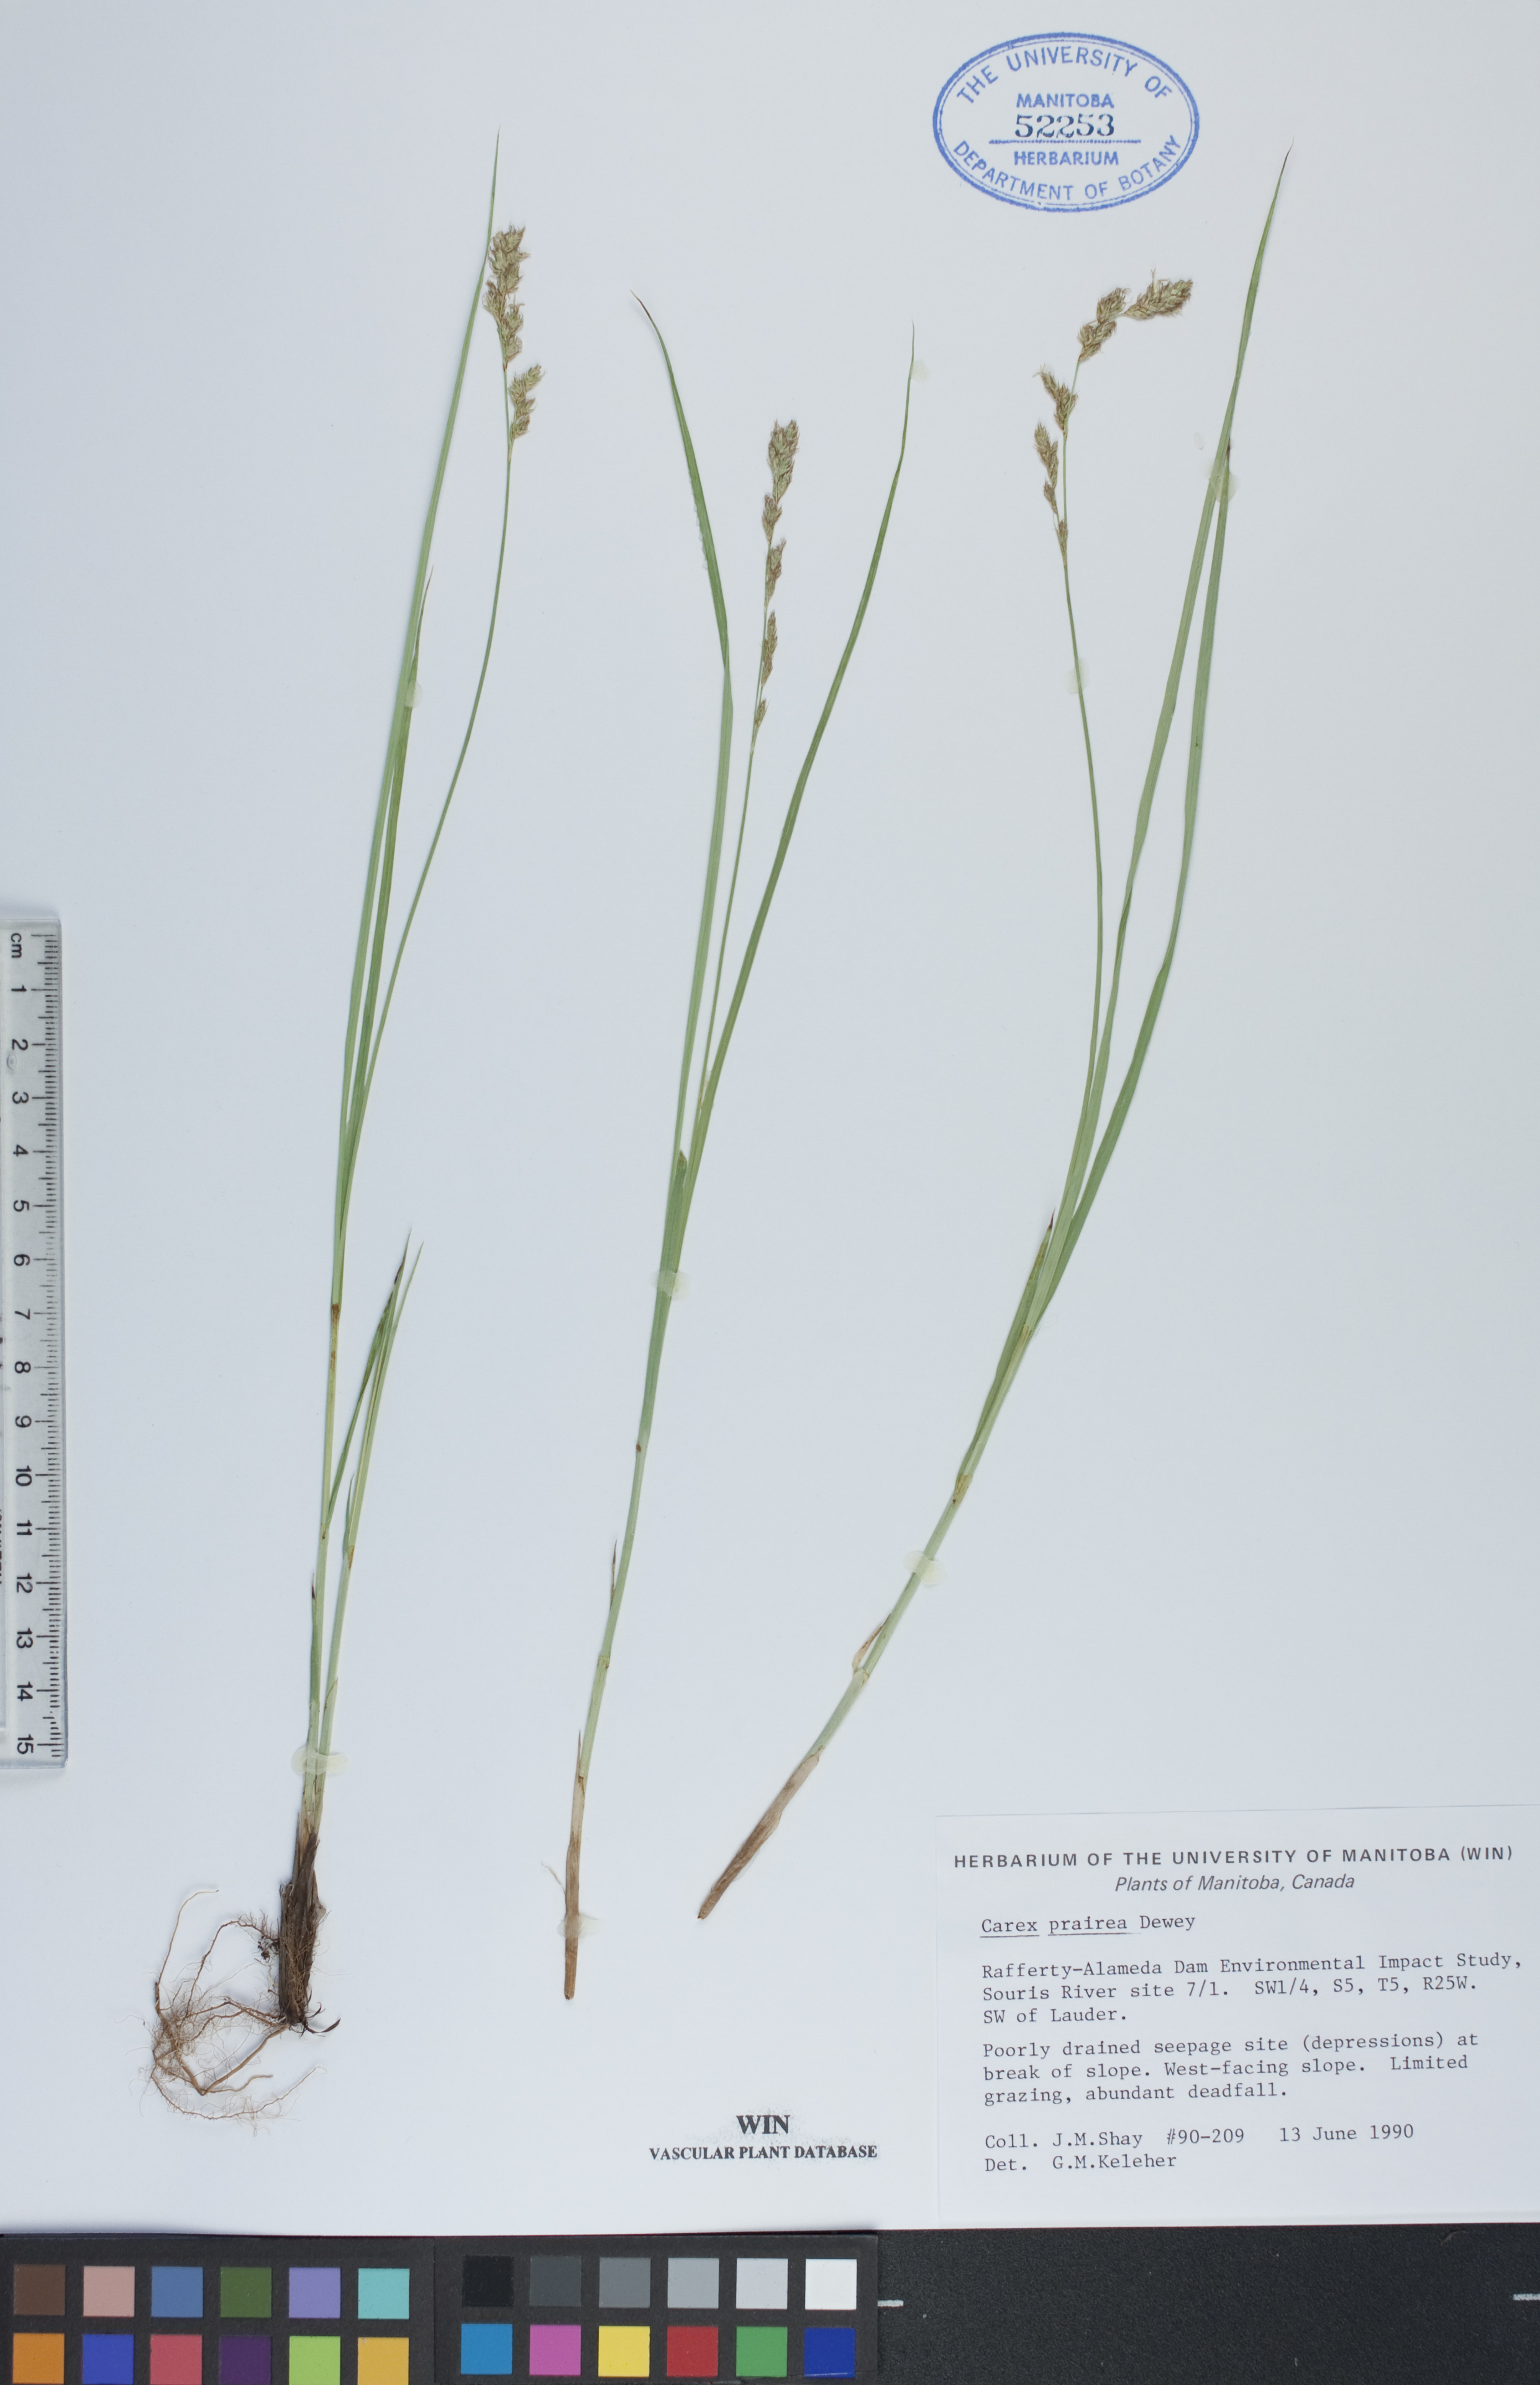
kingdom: Plantae
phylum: Tracheophyta
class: Liliopsida
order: Poales
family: Cyperaceae
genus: Carex
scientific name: Carex prairea
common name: Prairie sedge
